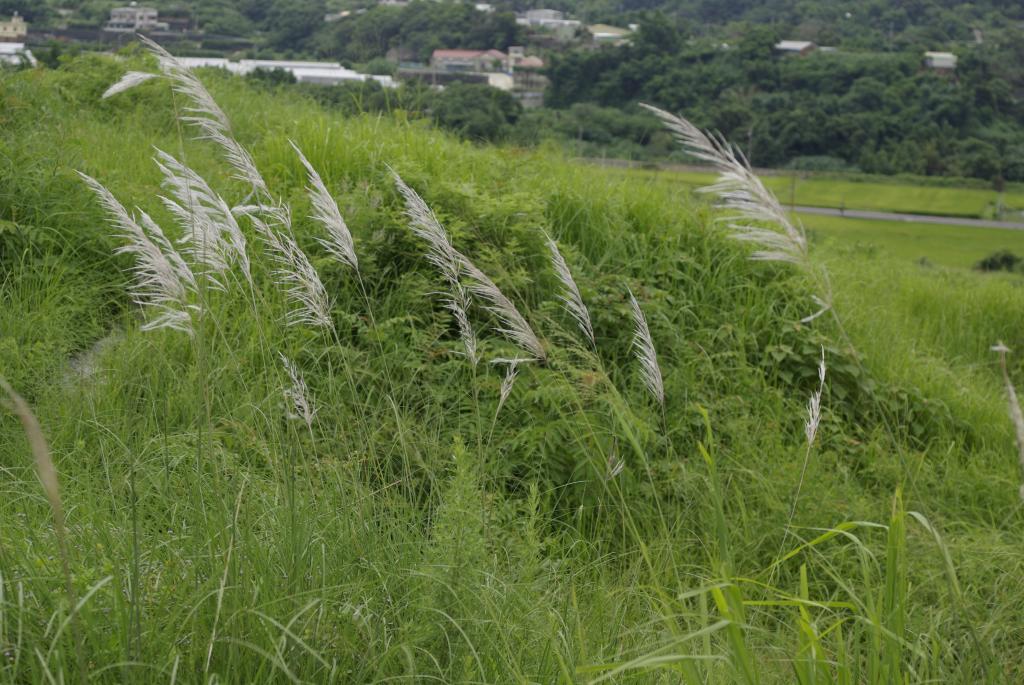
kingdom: Plantae
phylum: Tracheophyta
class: Liliopsida
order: Poales
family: Poaceae
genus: Saccharum
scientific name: Saccharum spontaneum
